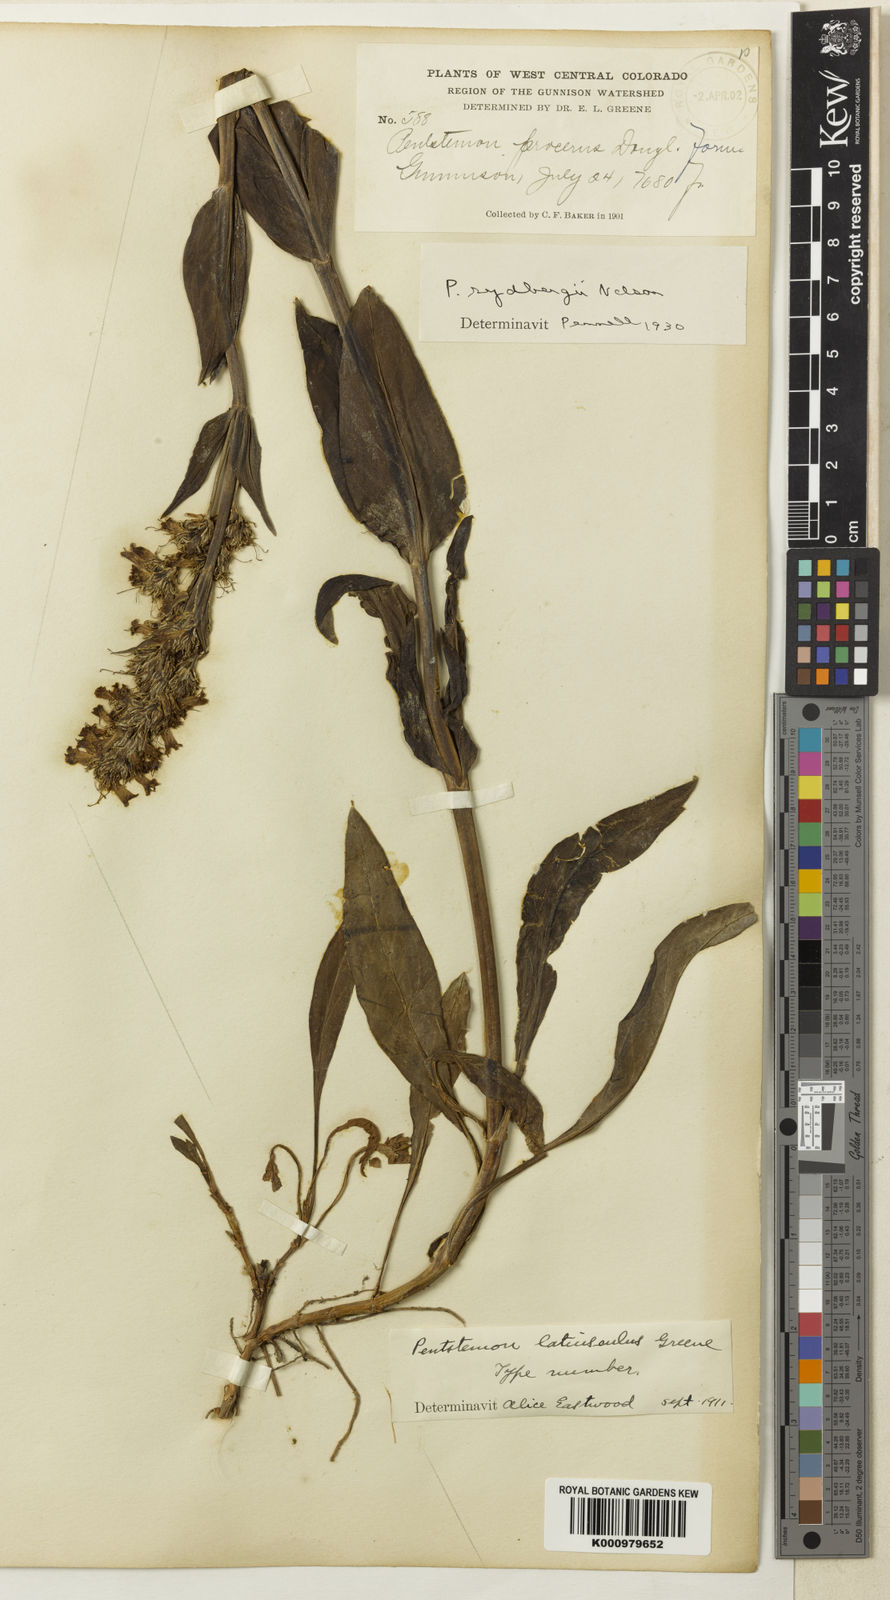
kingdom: Plantae
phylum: Tracheophyta
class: Magnoliopsida
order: Lamiales
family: Plantaginaceae
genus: Penstemon
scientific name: Penstemon rydbergii
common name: Rydberg's beardtongue
